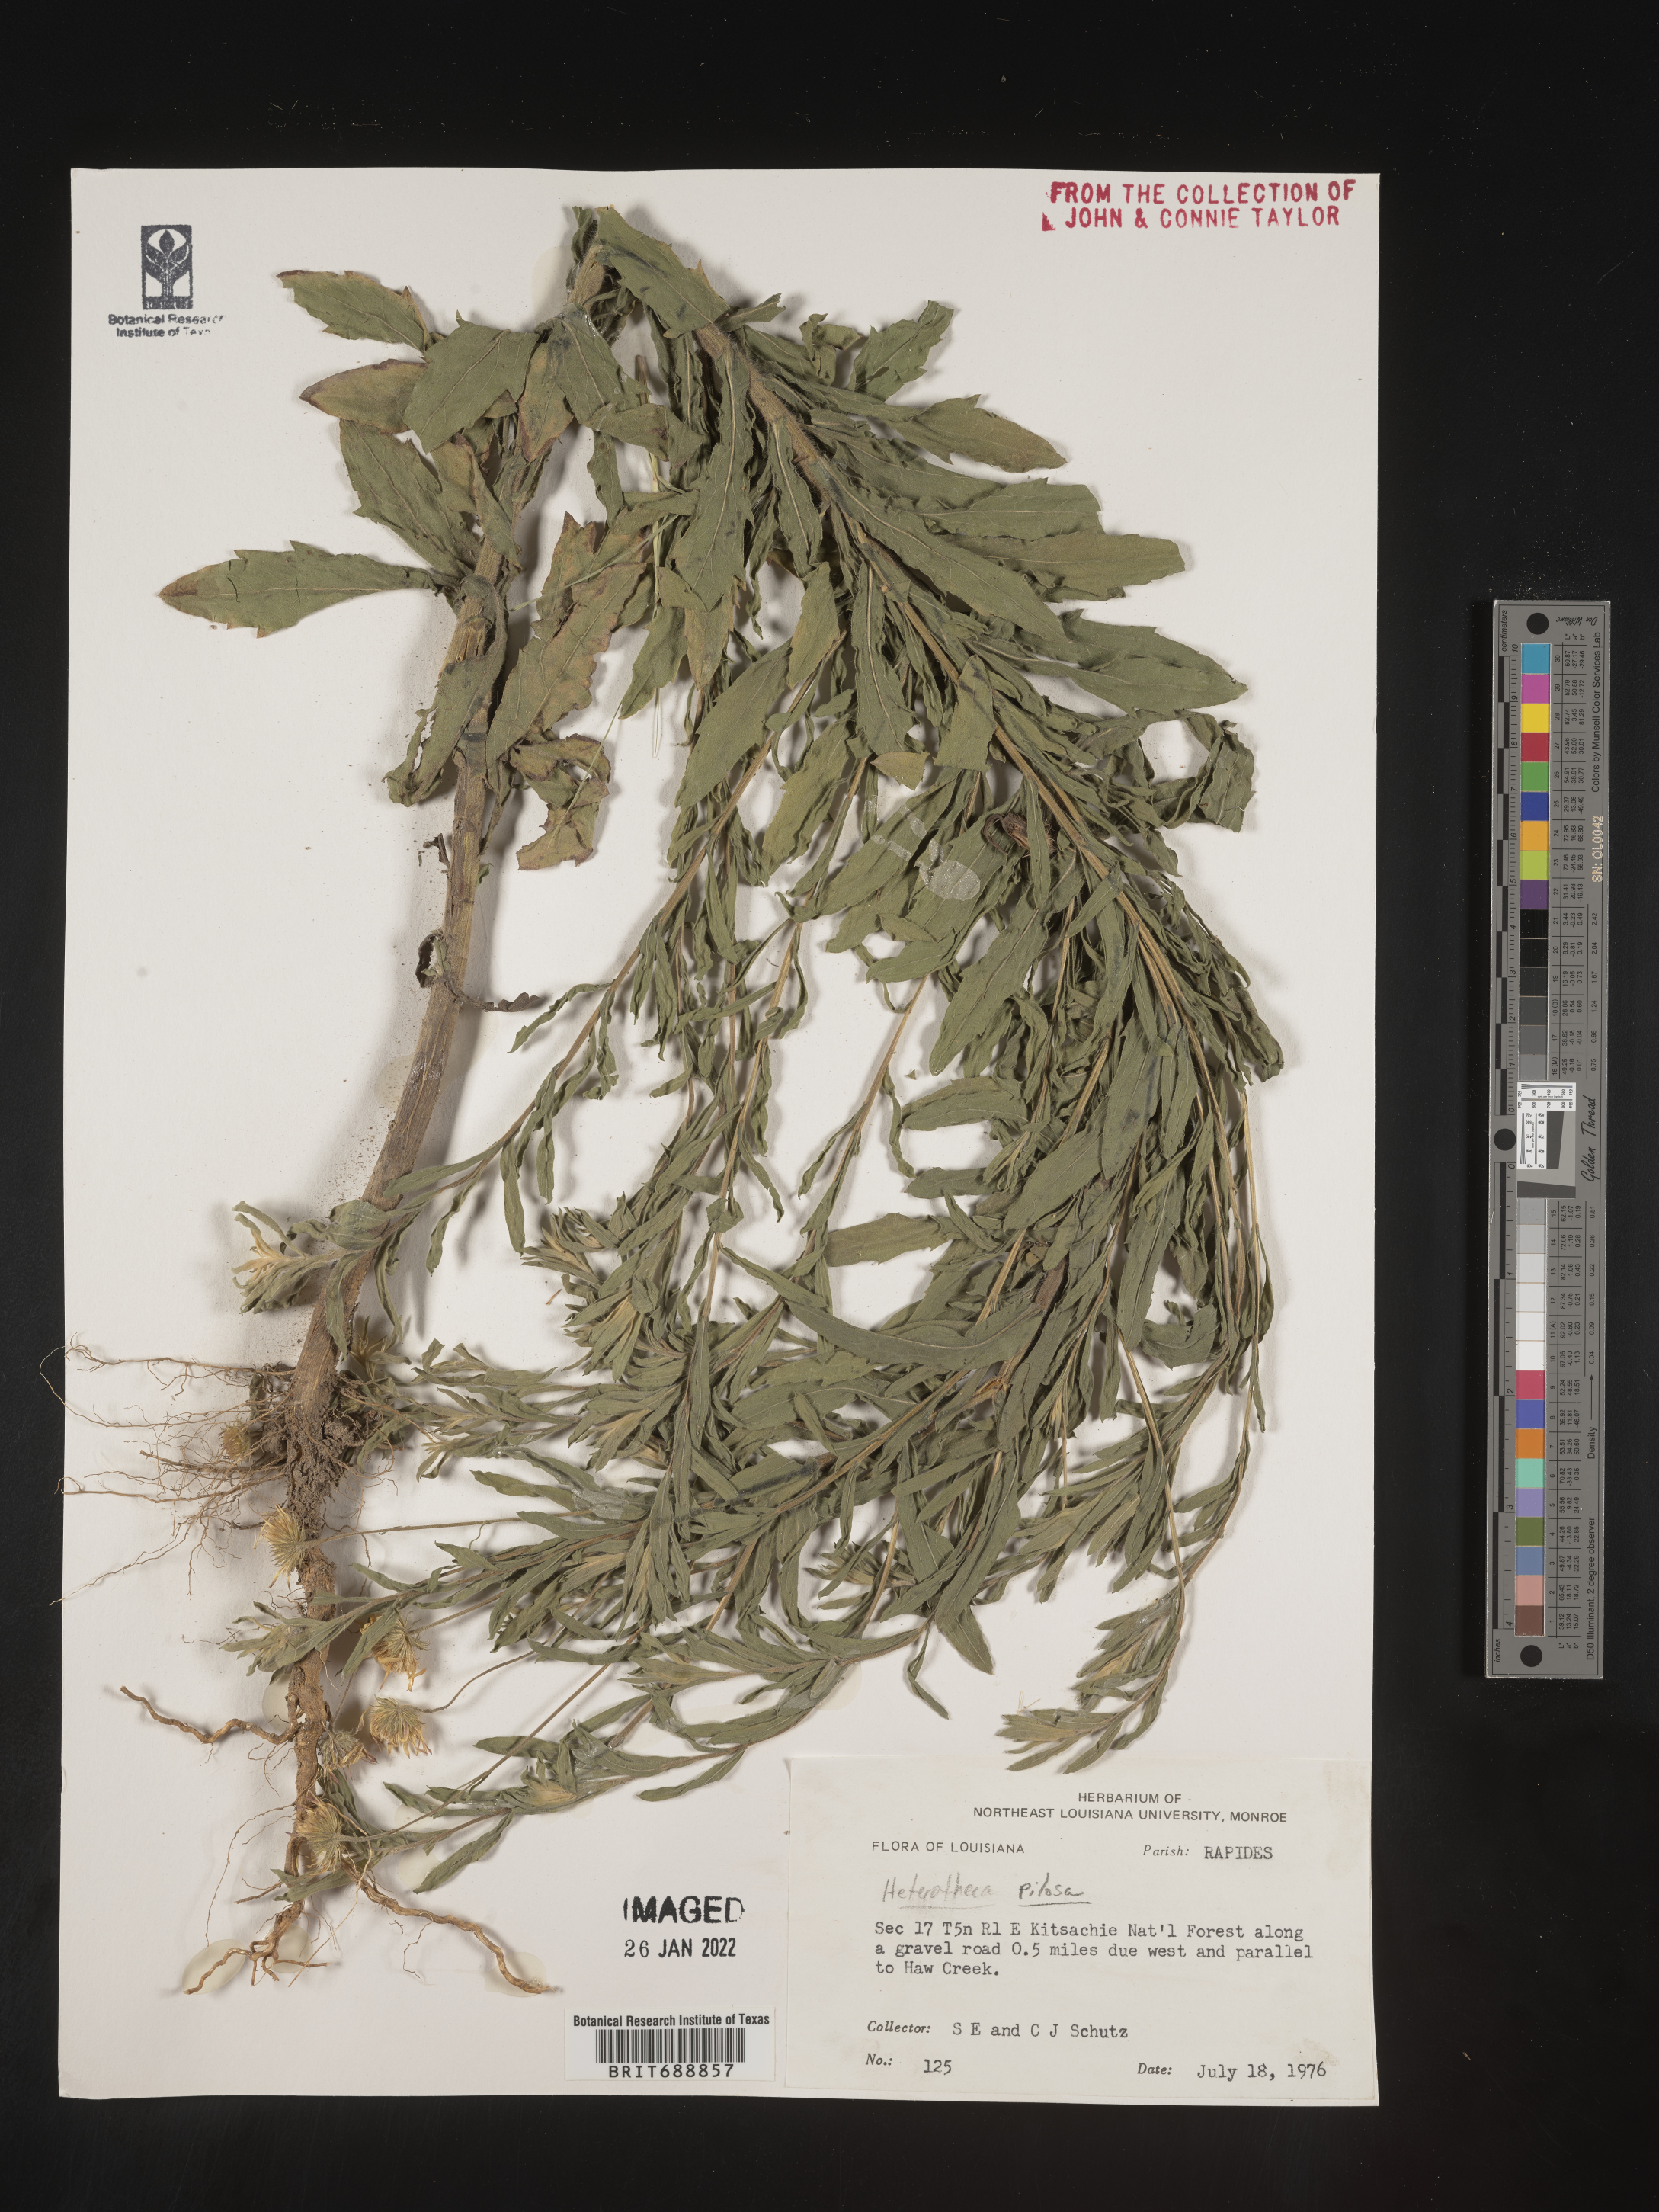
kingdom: Plantae
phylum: Tracheophyta
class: Magnoliopsida
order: Asterales
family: Asteraceae
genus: Bradburia
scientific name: Bradburia pilosa
